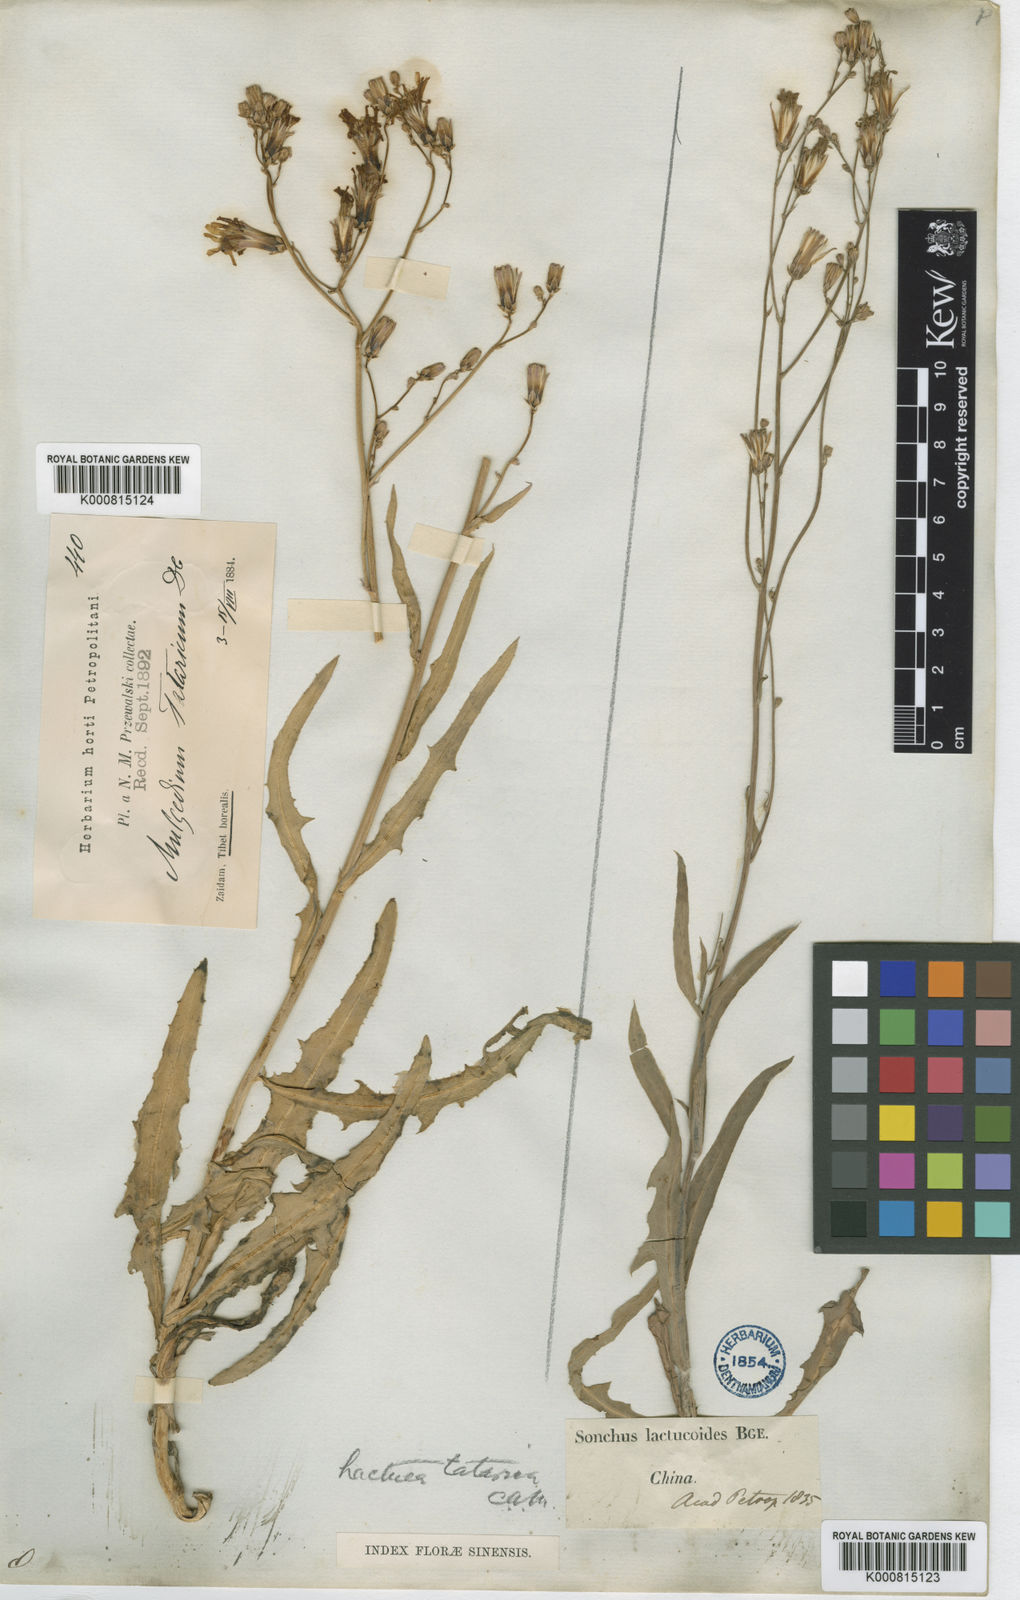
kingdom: Plantae
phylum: Tracheophyta
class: Magnoliopsida
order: Asterales
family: Asteraceae
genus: Lactuca
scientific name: Lactuca tatarica
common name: Blue lettuce
